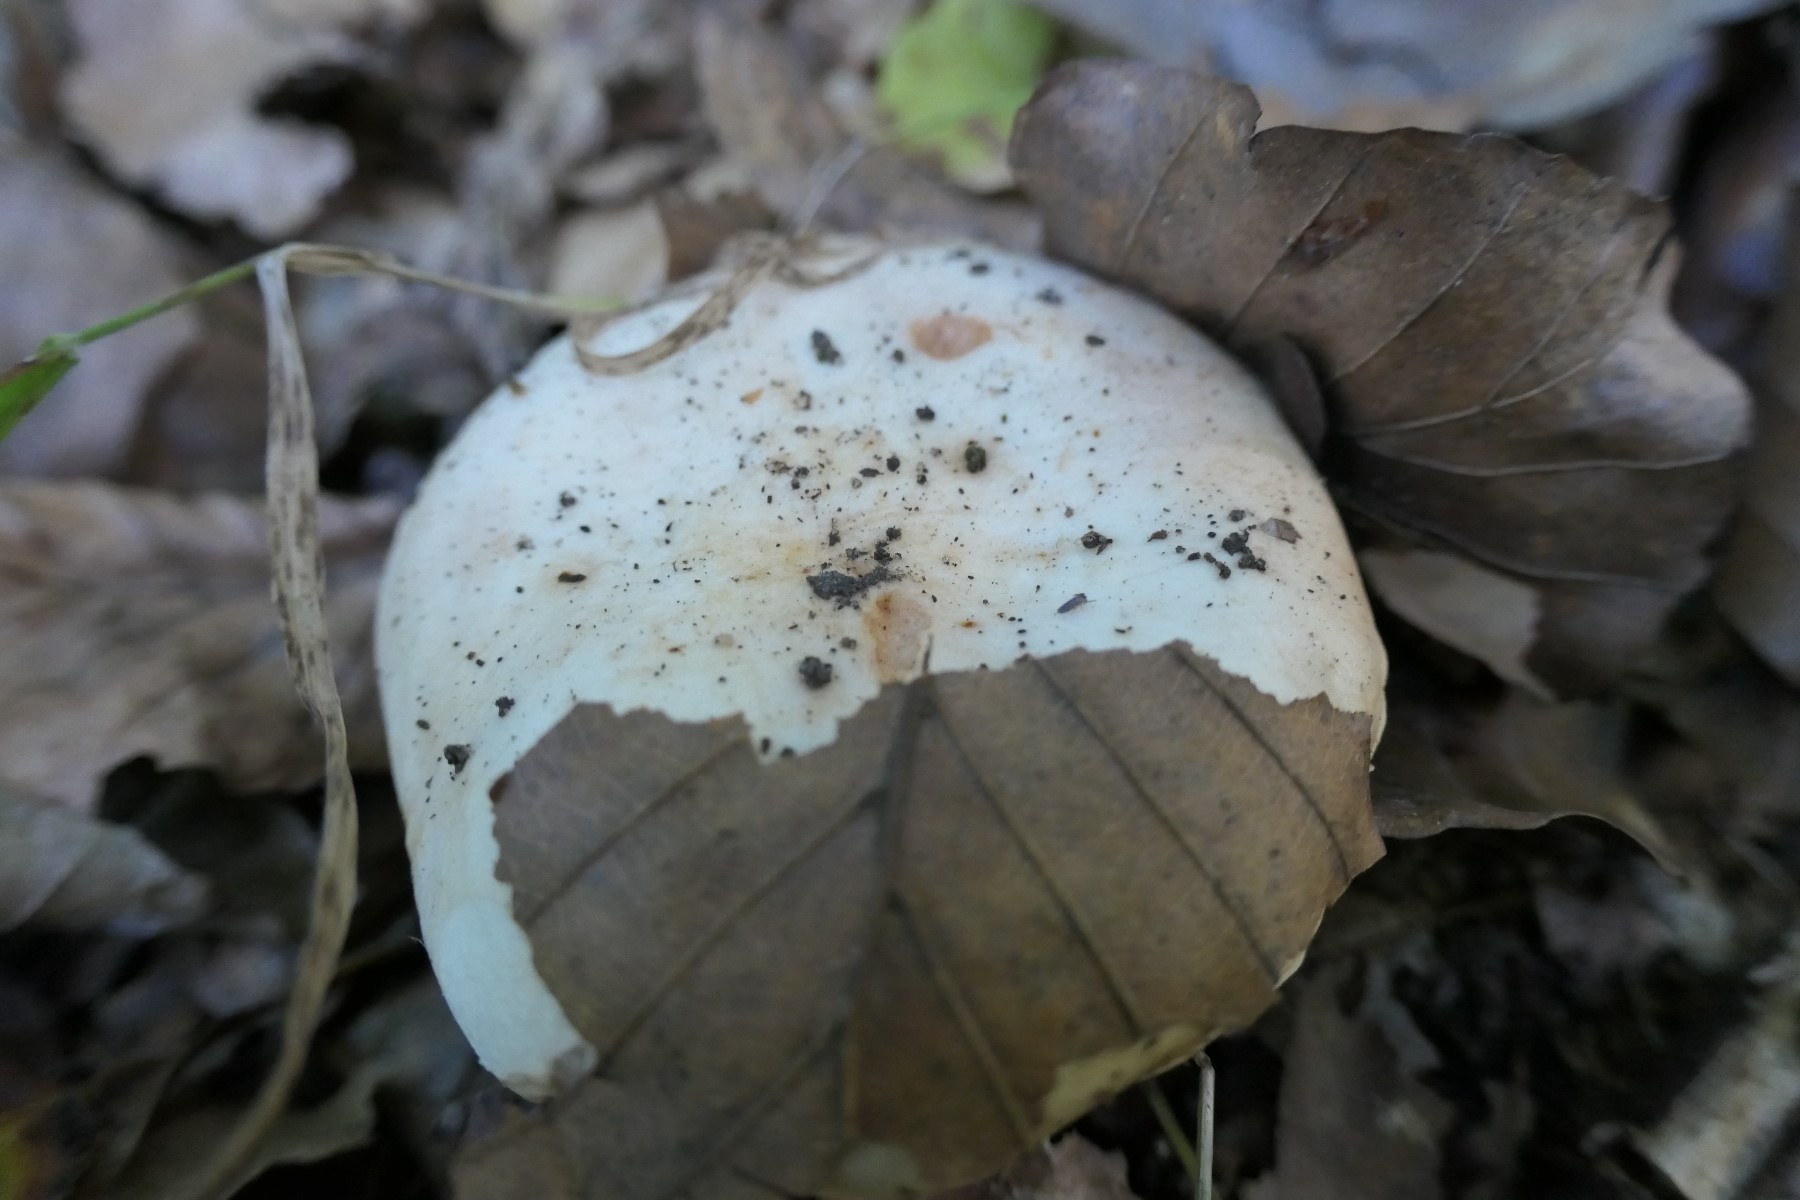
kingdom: Fungi
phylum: Basidiomycota
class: Agaricomycetes
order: Russulales
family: Russulaceae
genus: Lactarius
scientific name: Lactarius pallidus
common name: bleg mælkehat
